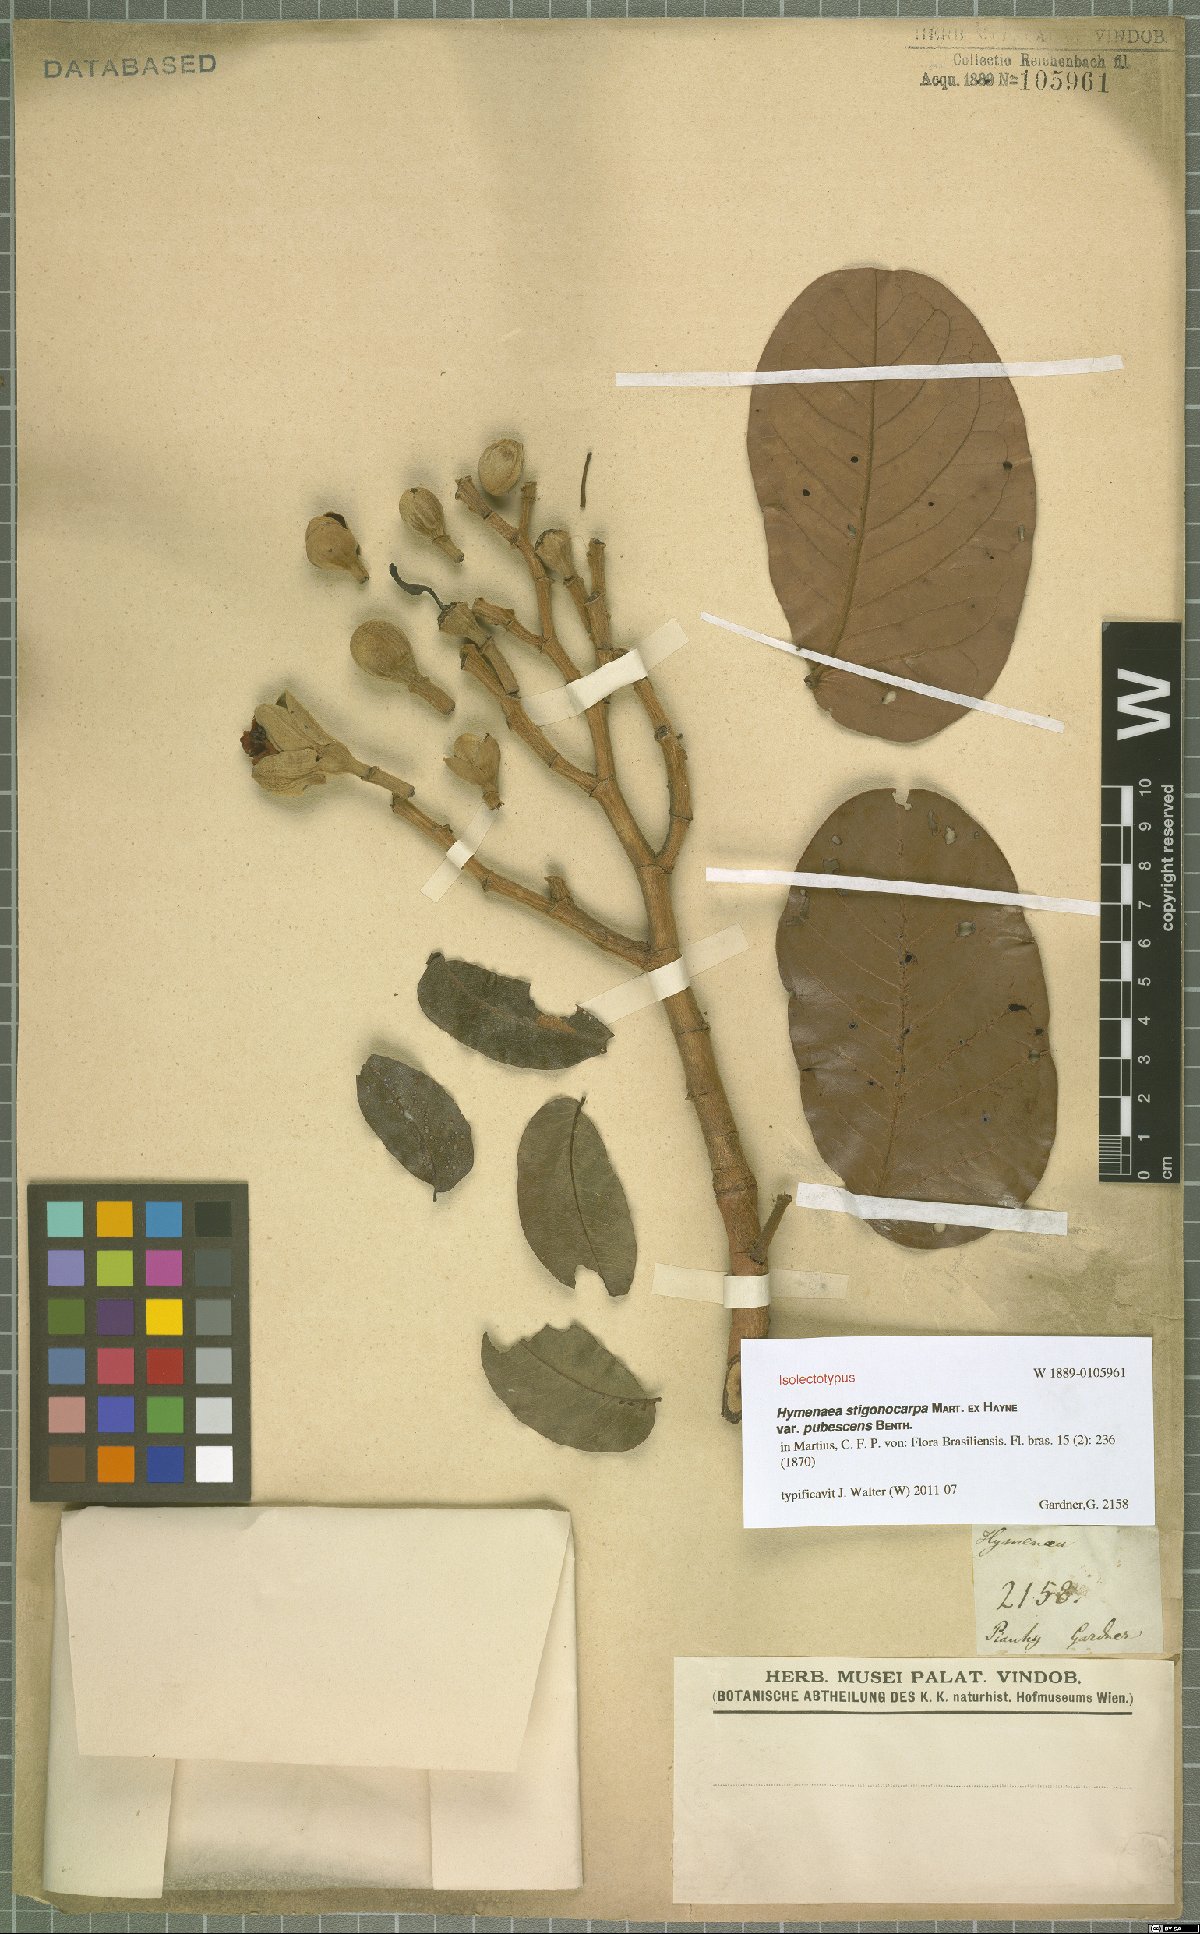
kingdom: Plantae
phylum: Tracheophyta
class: Magnoliopsida
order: Fabales
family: Fabaceae
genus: Hymenaea
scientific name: Hymenaea stigonocarpa
